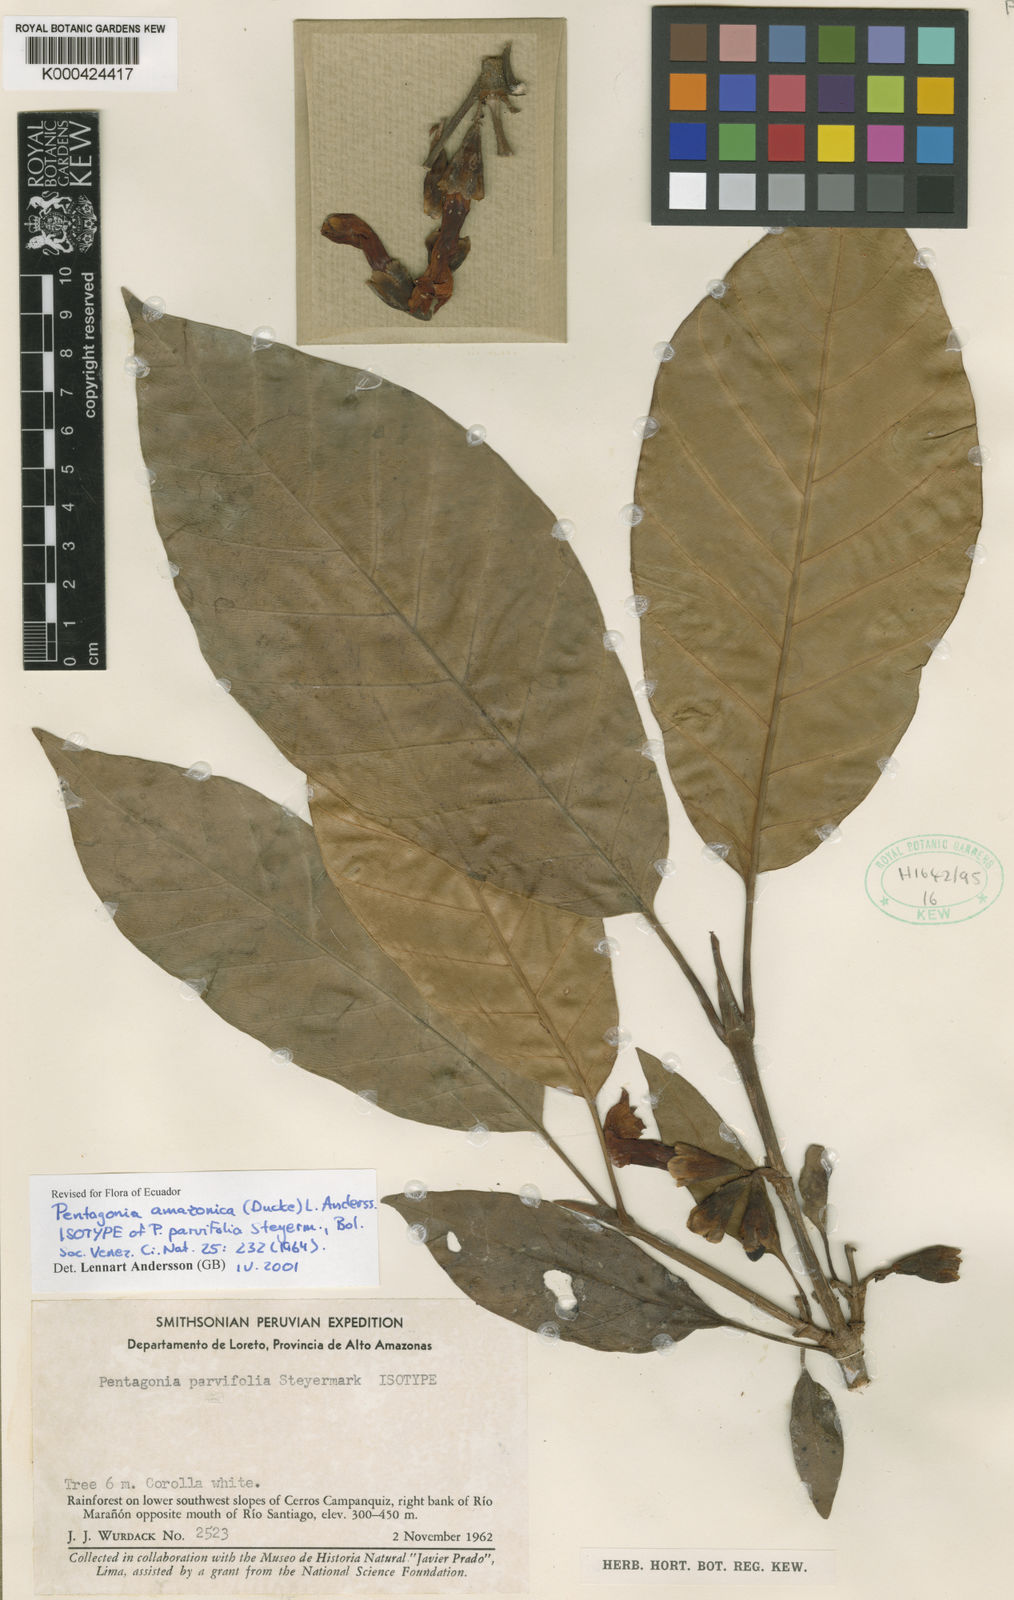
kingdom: Plantae
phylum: Tracheophyta
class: Magnoliopsida
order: Gentianales
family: Rubiaceae
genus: Pentagonia
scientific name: Pentagonia amazonica
